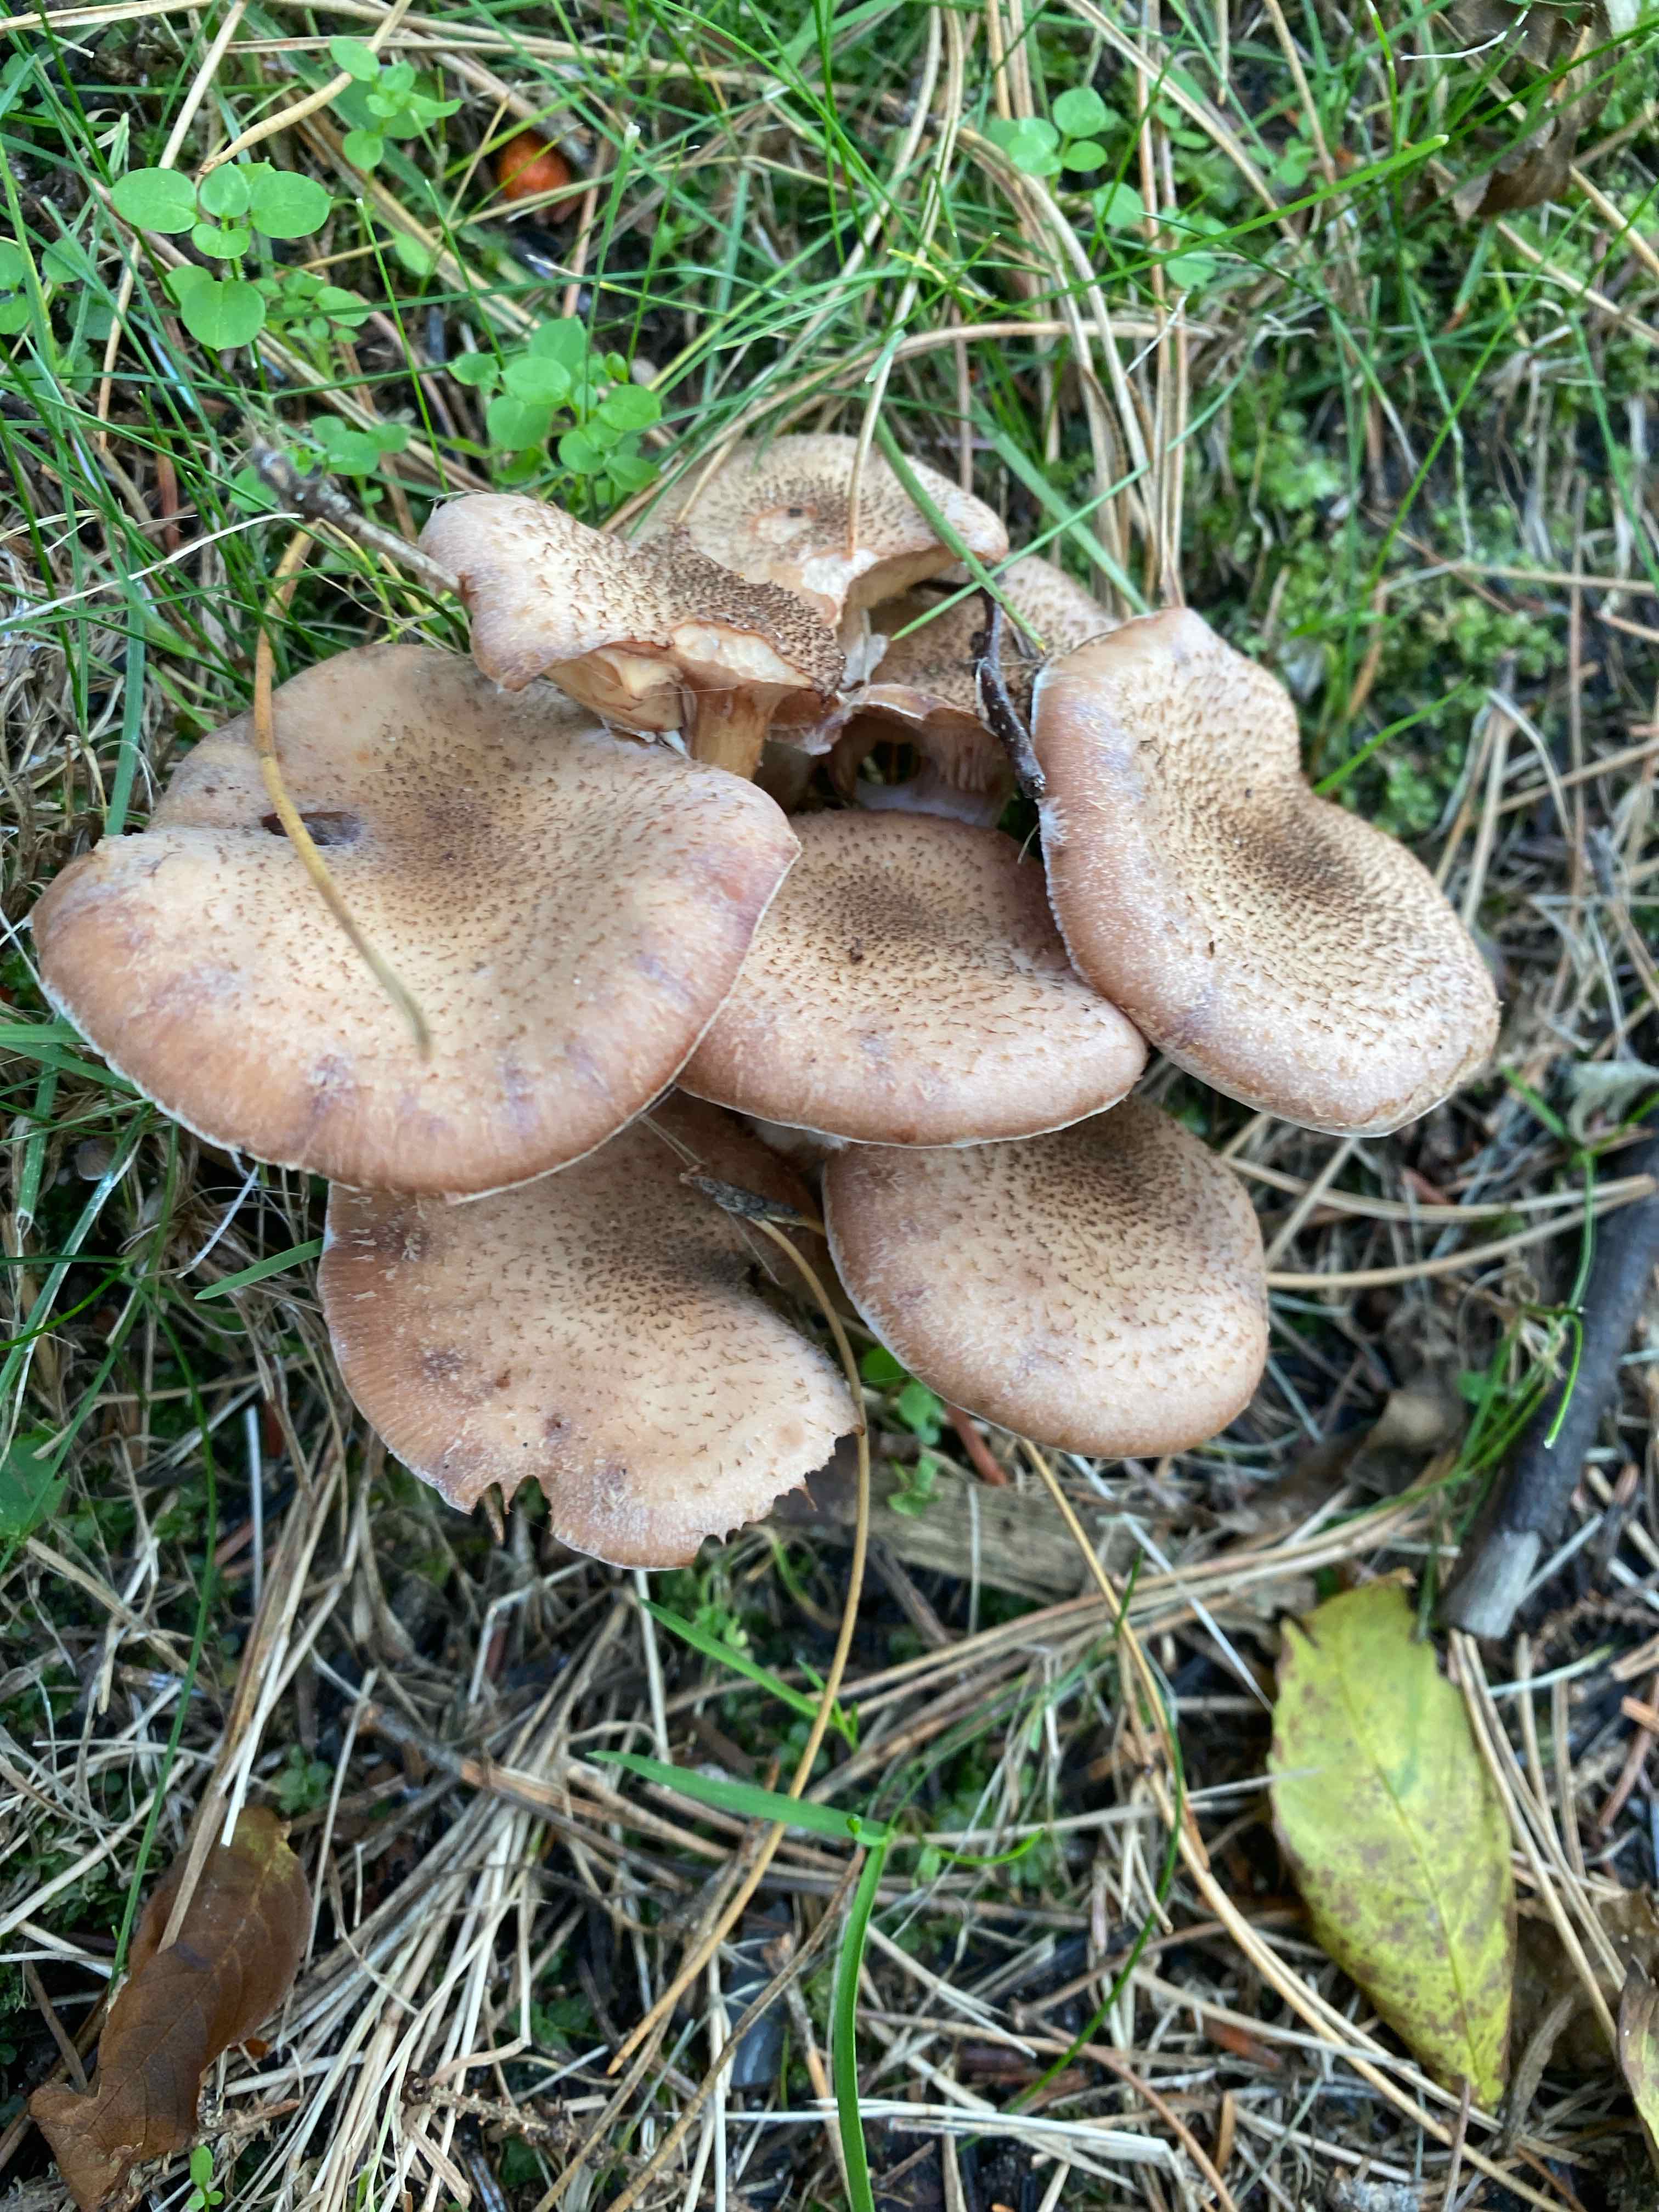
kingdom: Fungi
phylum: Basidiomycota
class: Agaricomycetes
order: Agaricales
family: Physalacriaceae
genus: Armillaria
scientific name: Armillaria
